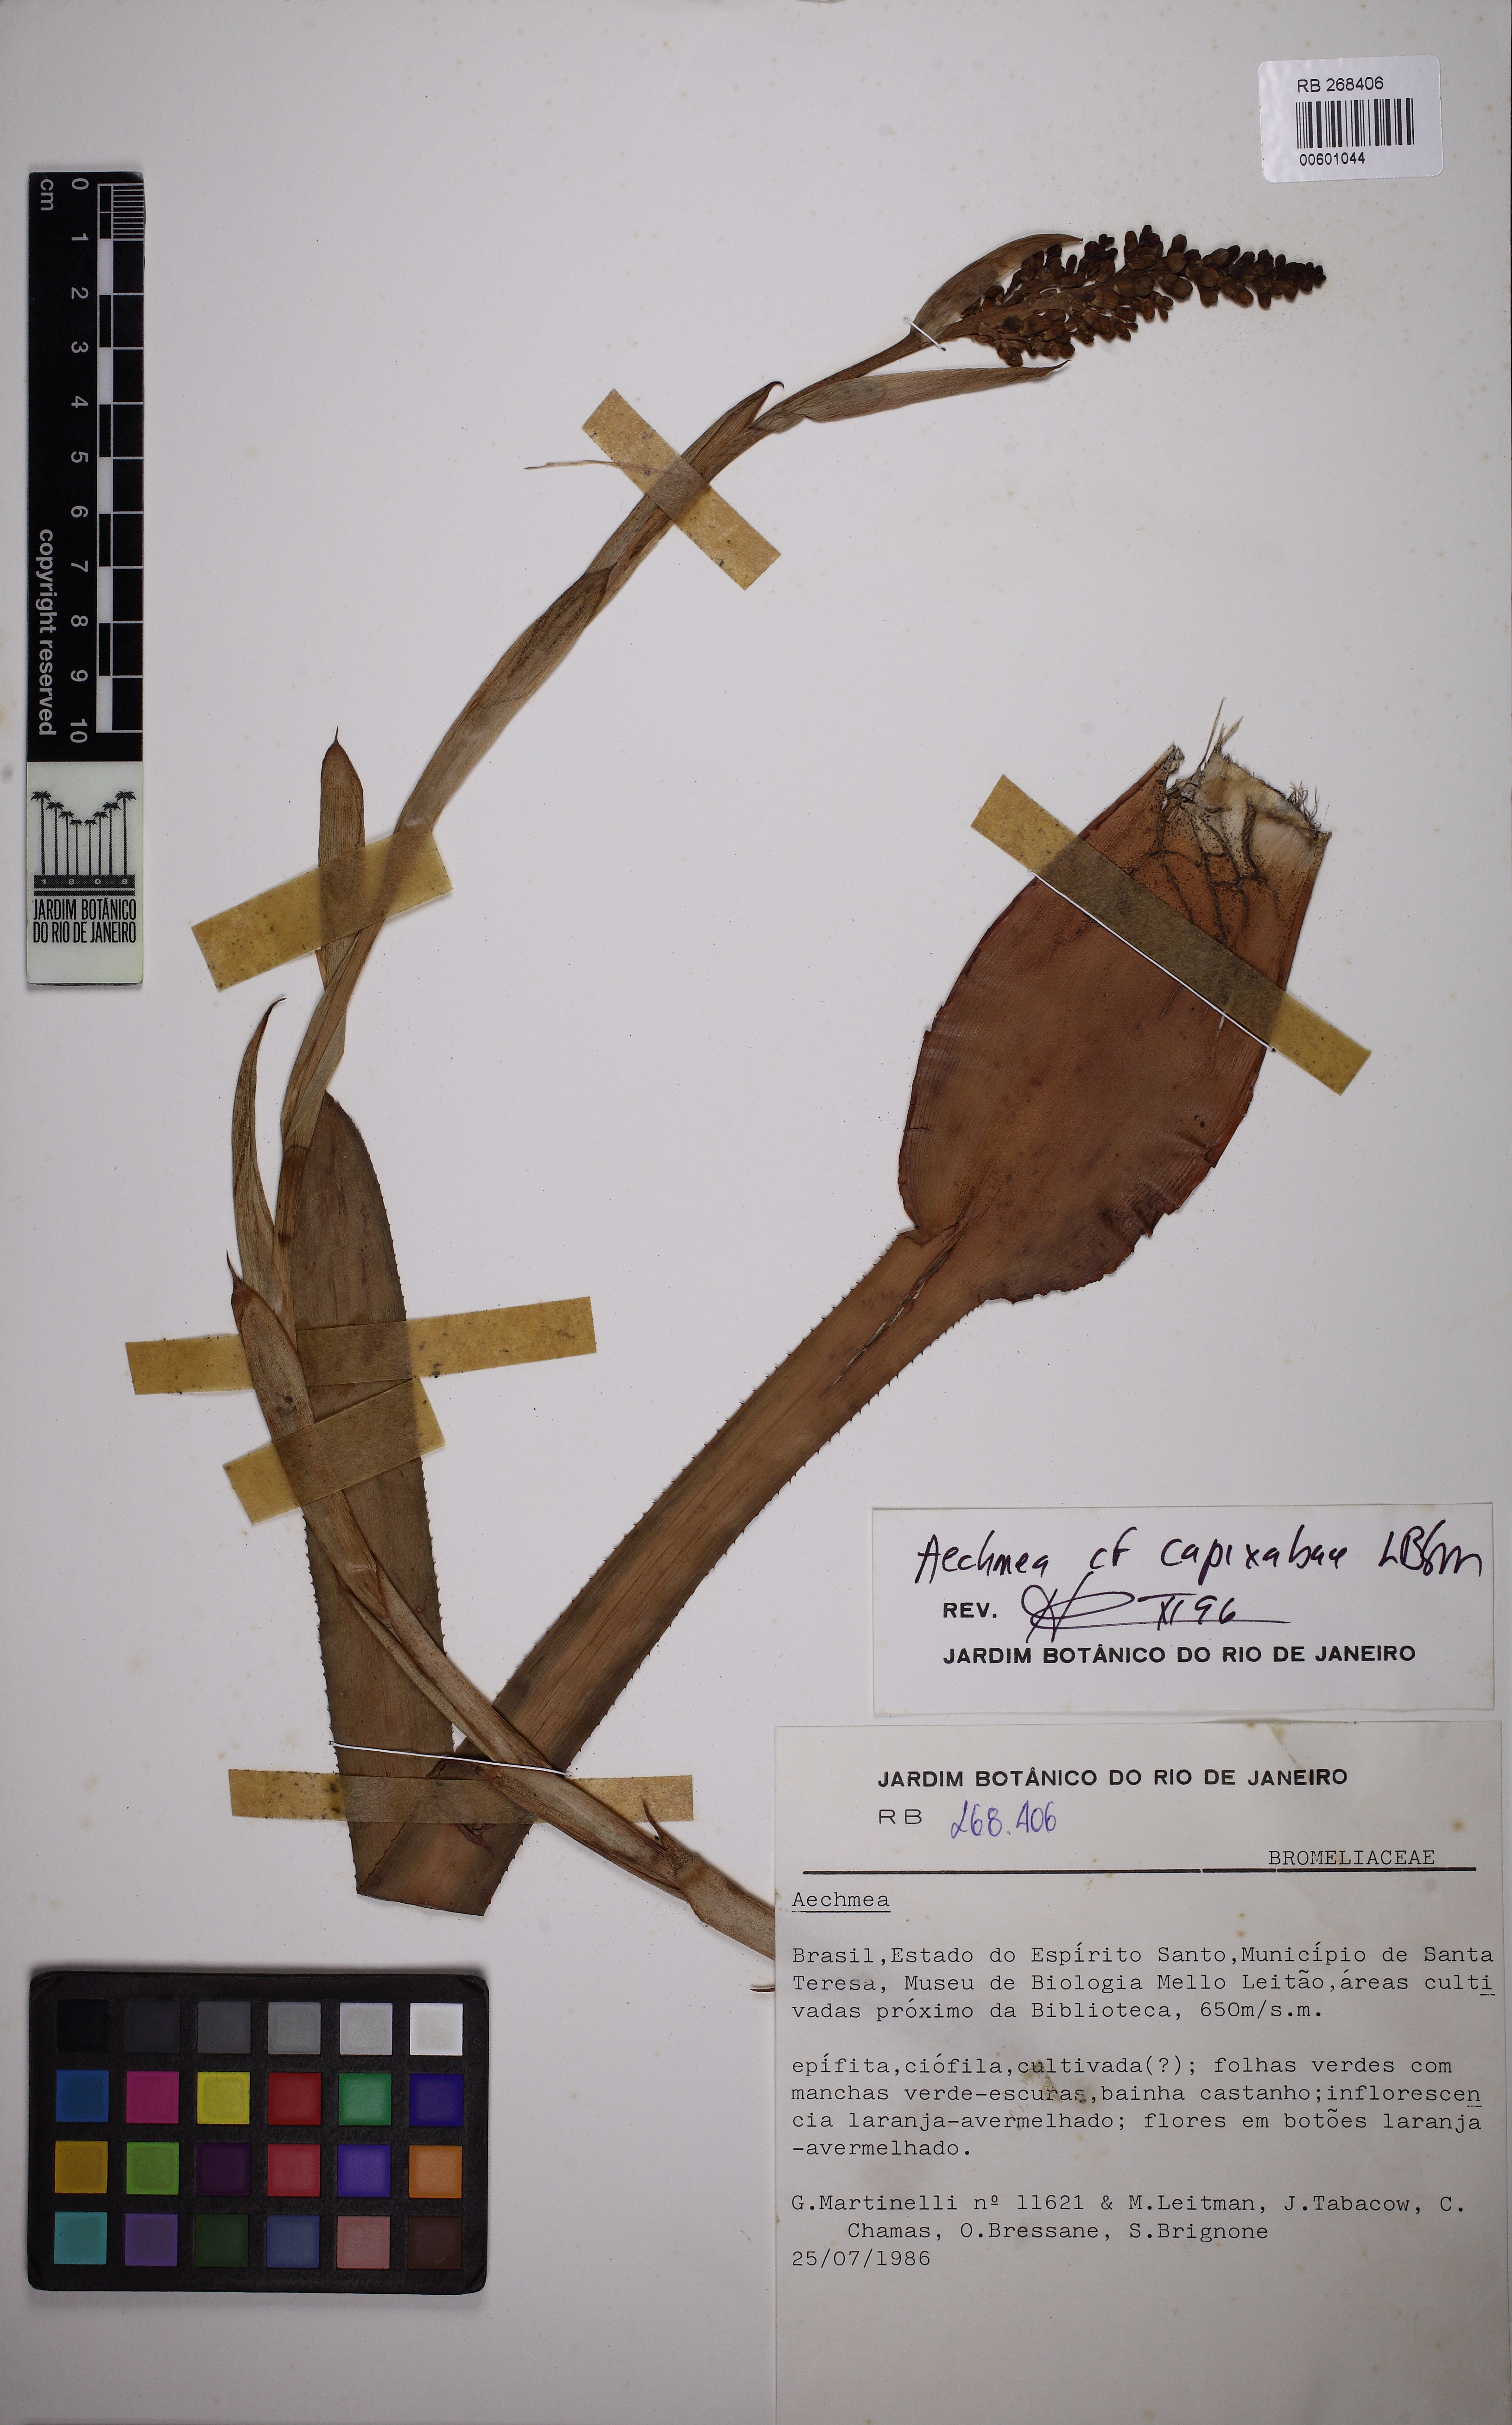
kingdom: Plantae
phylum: Tracheophyta
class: Liliopsida
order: Poales
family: Bromeliaceae
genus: Aechmea
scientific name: Aechmea capixabae
